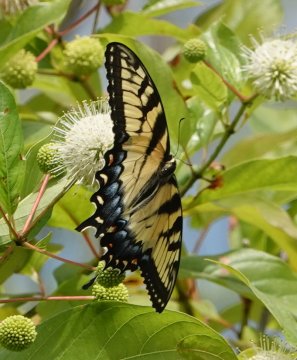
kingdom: Animalia
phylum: Arthropoda
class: Insecta
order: Lepidoptera
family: Papilionidae
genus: Pterourus
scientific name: Pterourus glaucus
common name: Eastern Tiger Swallowtail
